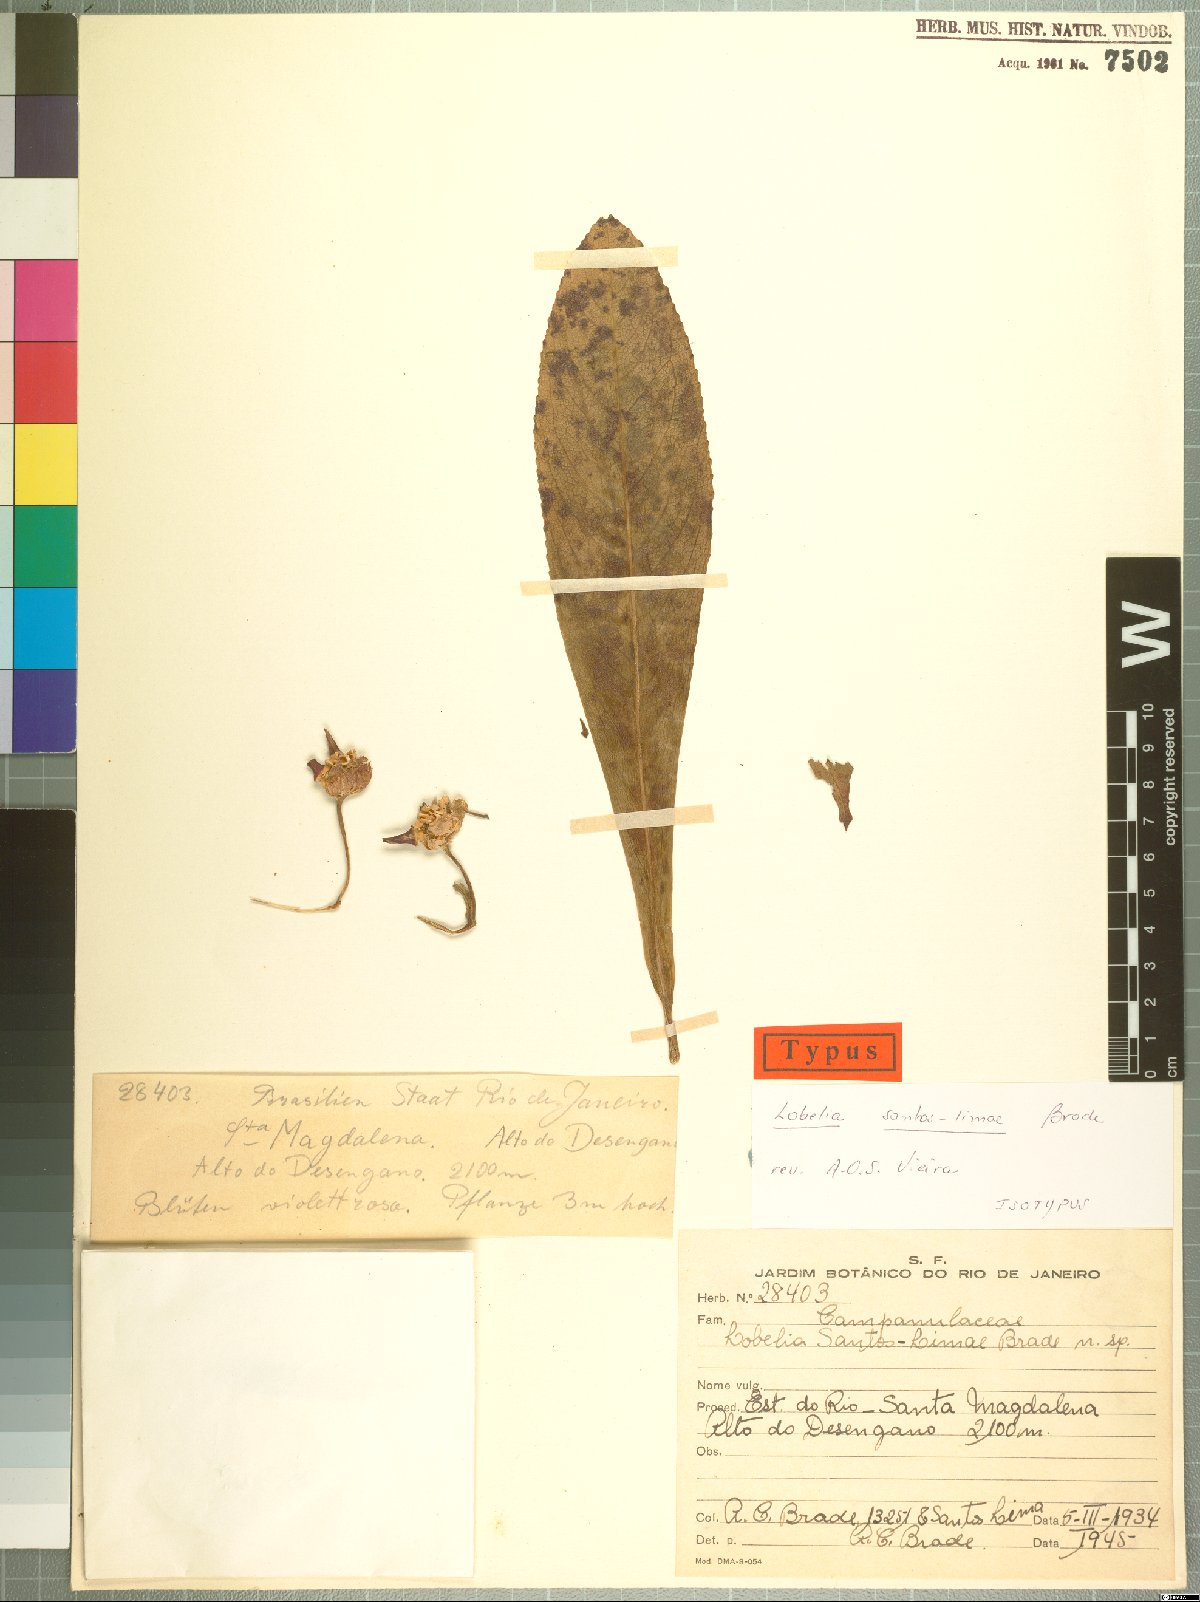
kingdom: Plantae
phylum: Tracheophyta
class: Magnoliopsida
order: Asterales
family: Campanulaceae
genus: Lobelia
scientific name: Lobelia santos-limae
